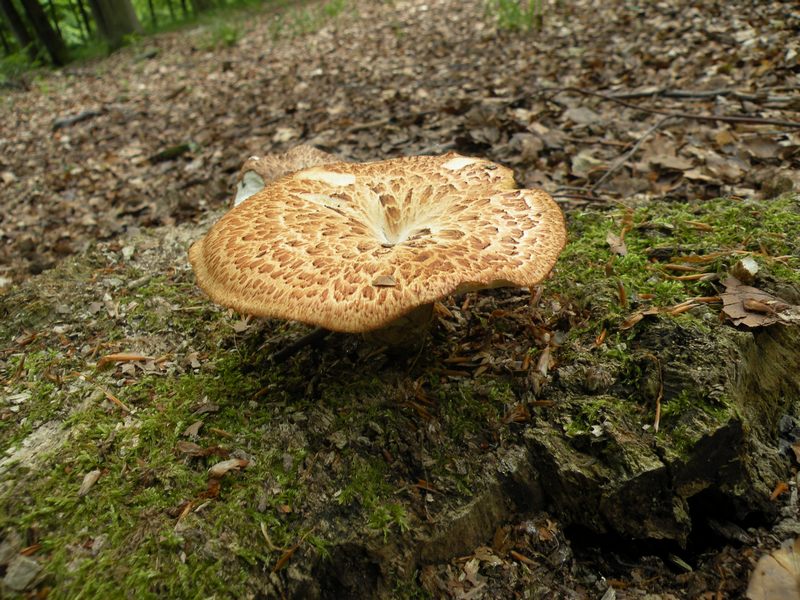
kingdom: Fungi
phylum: Basidiomycota
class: Agaricomycetes
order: Polyporales
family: Polyporaceae
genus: Polyporus
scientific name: Polyporus tuberaster
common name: knoldet stilkporesvamp
